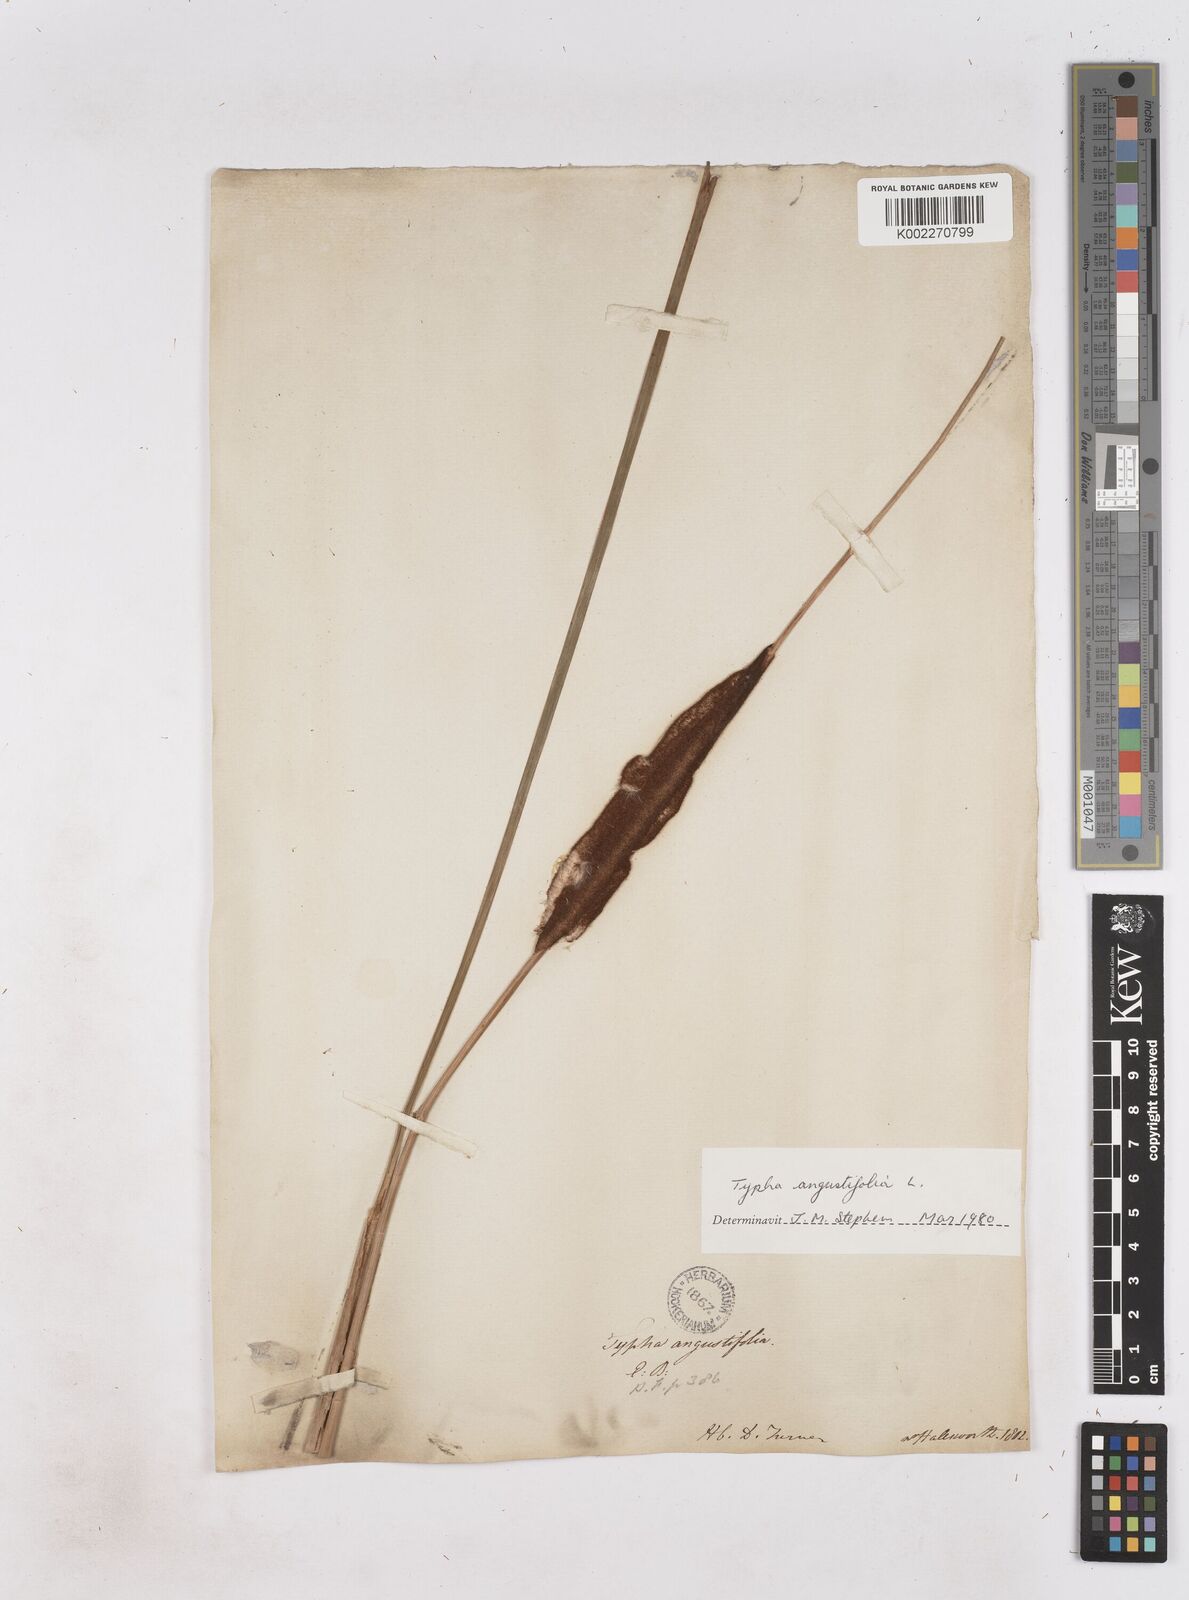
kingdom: Plantae
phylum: Tracheophyta
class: Liliopsida
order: Poales
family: Typhaceae
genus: Typha
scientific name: Typha angustifolia
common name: Lesser bulrush
